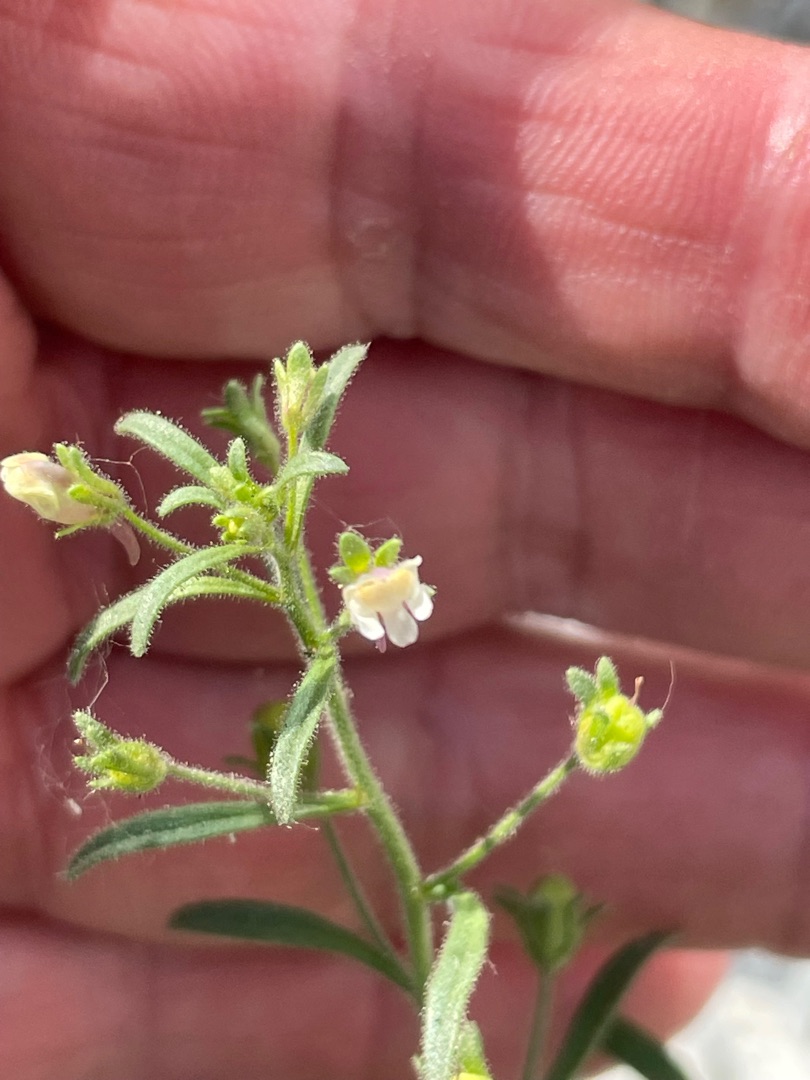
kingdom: Plantae
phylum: Tracheophyta
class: Magnoliopsida
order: Lamiales
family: Plantaginaceae
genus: Chaenorhinum
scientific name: Chaenorhinum minus
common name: Liden torskemund
